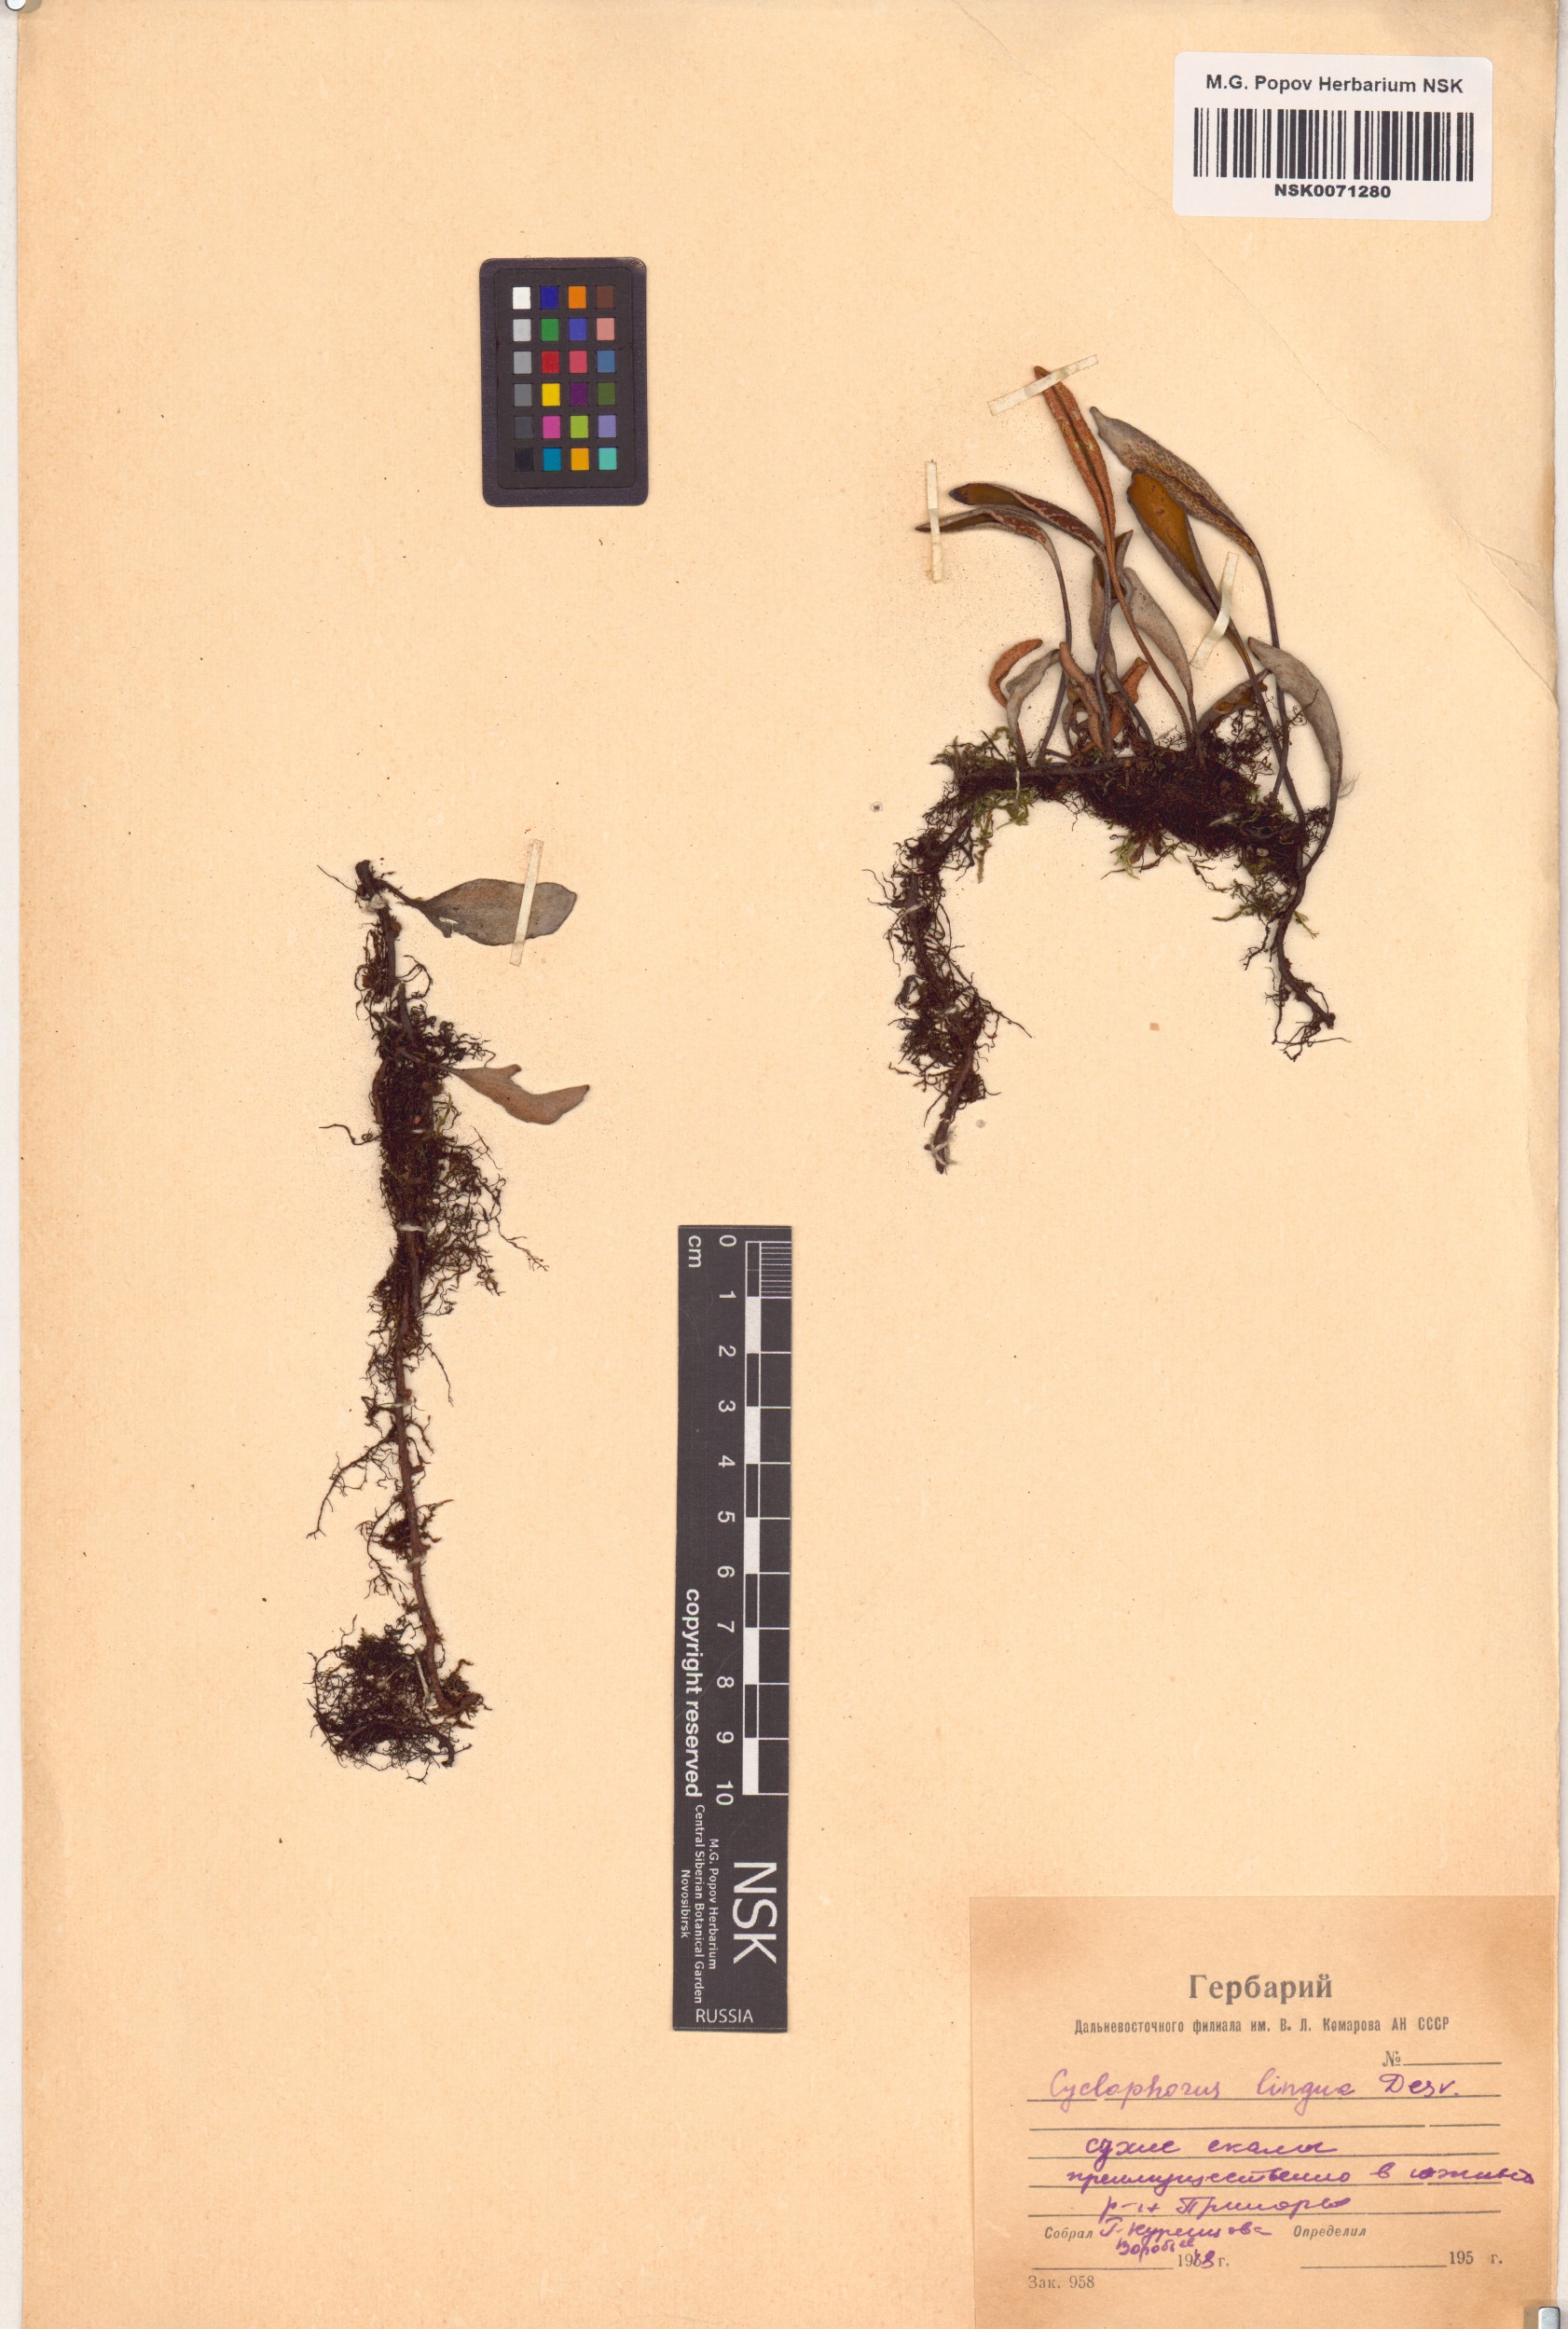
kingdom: Plantae
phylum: Tracheophyta
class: Polypodiopsida
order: Polypodiales
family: Polypodiaceae
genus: Pyrrosia
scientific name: Pyrrosia lingua
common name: Felt fern
